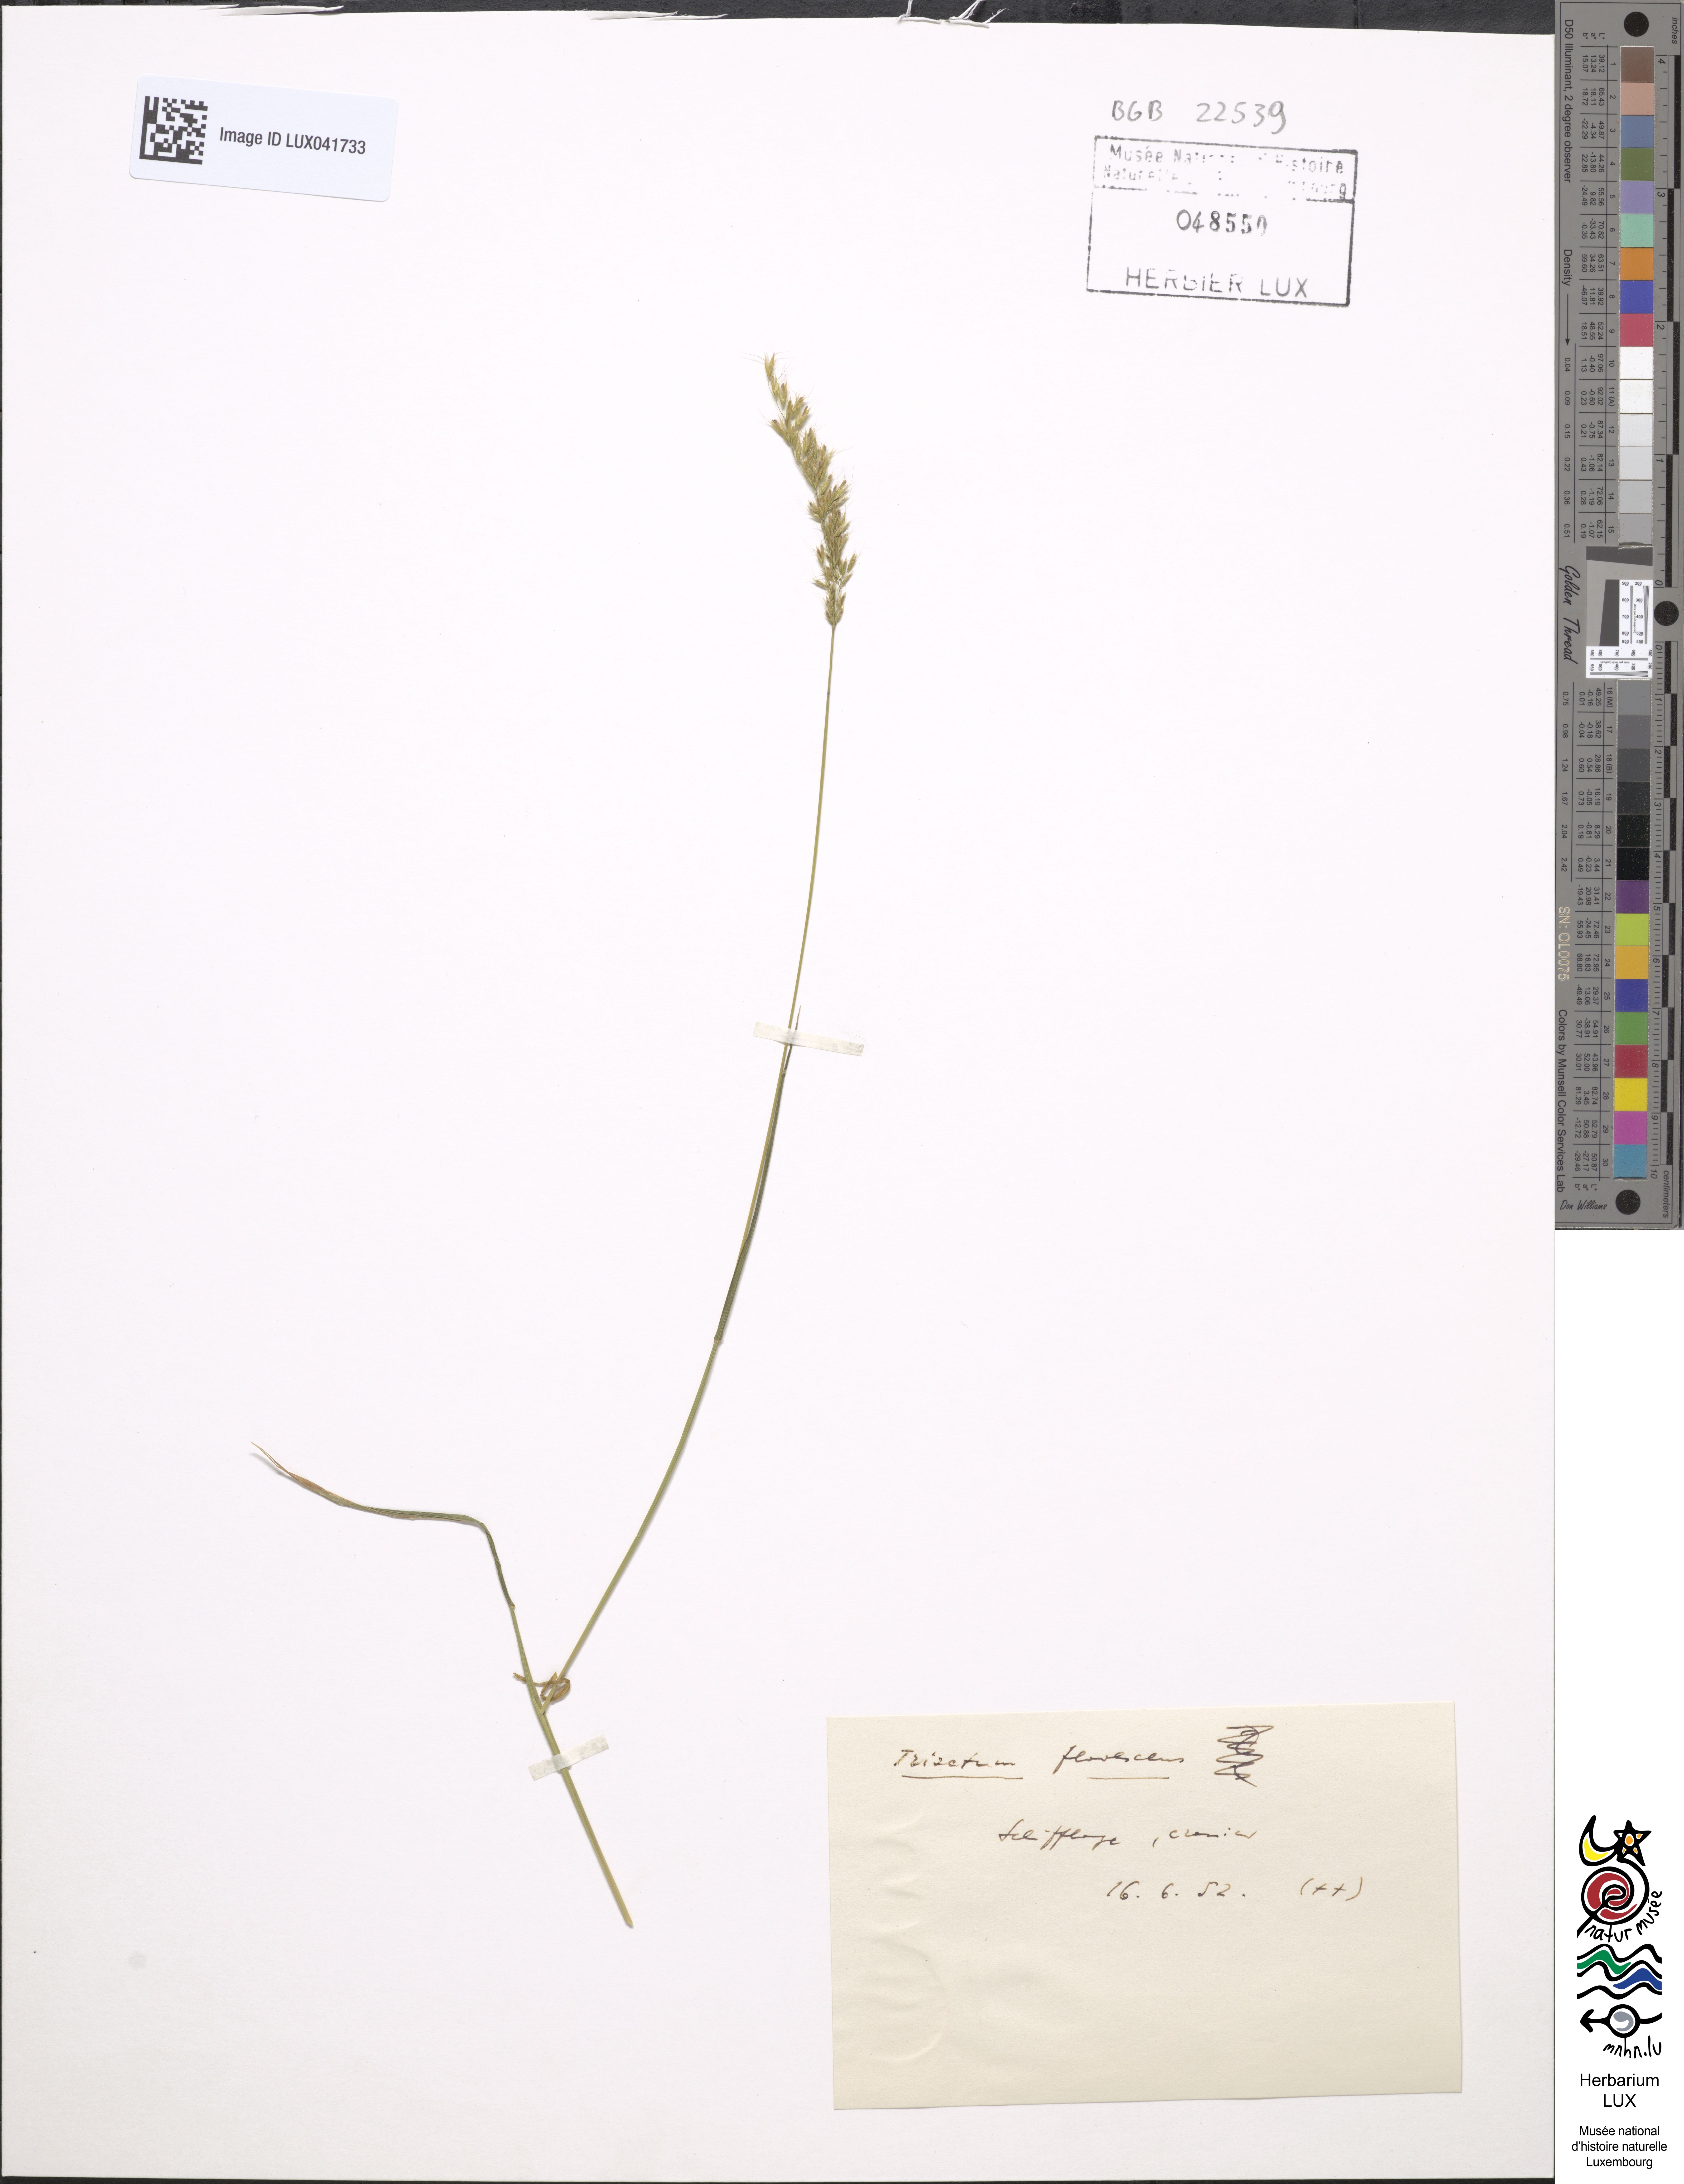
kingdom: Plantae
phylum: Tracheophyta
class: Liliopsida
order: Poales
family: Poaceae
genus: Trisetum
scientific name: Trisetum flavescens
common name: Yellow oat-grass
